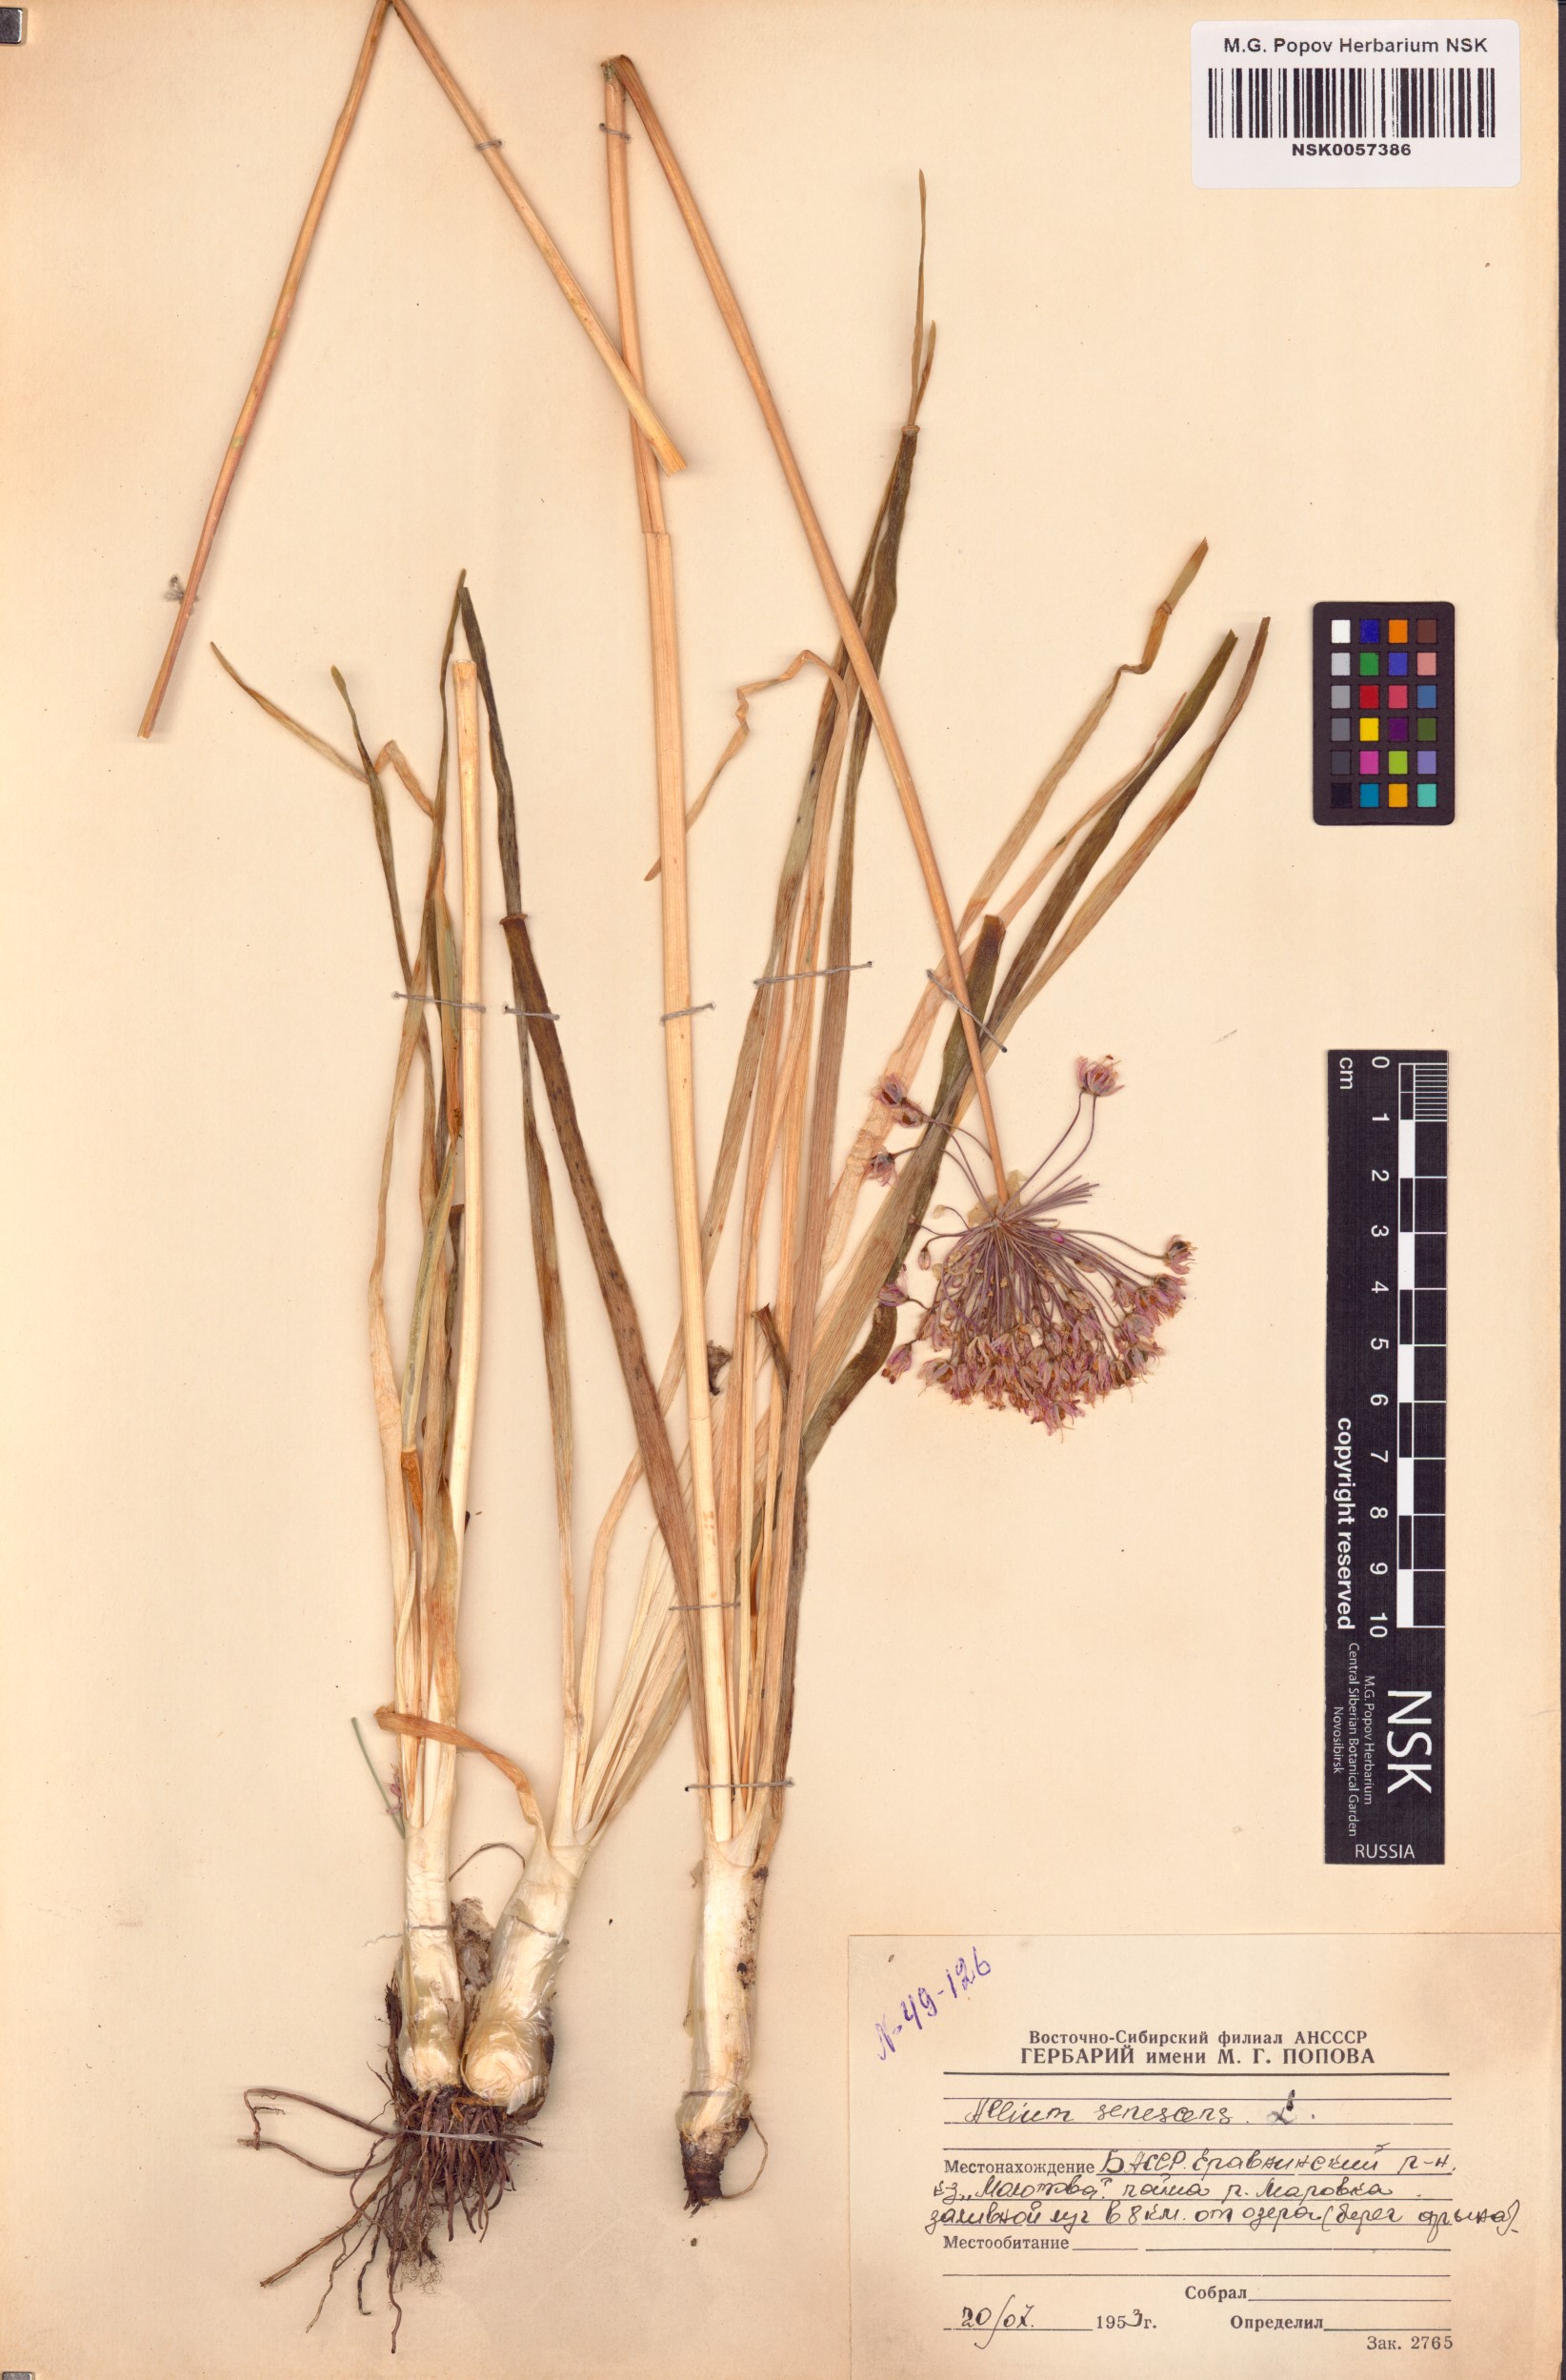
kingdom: Plantae
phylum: Tracheophyta
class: Liliopsida
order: Asparagales
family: Amaryllidaceae
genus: Allium
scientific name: Allium senescens
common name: German garlic
